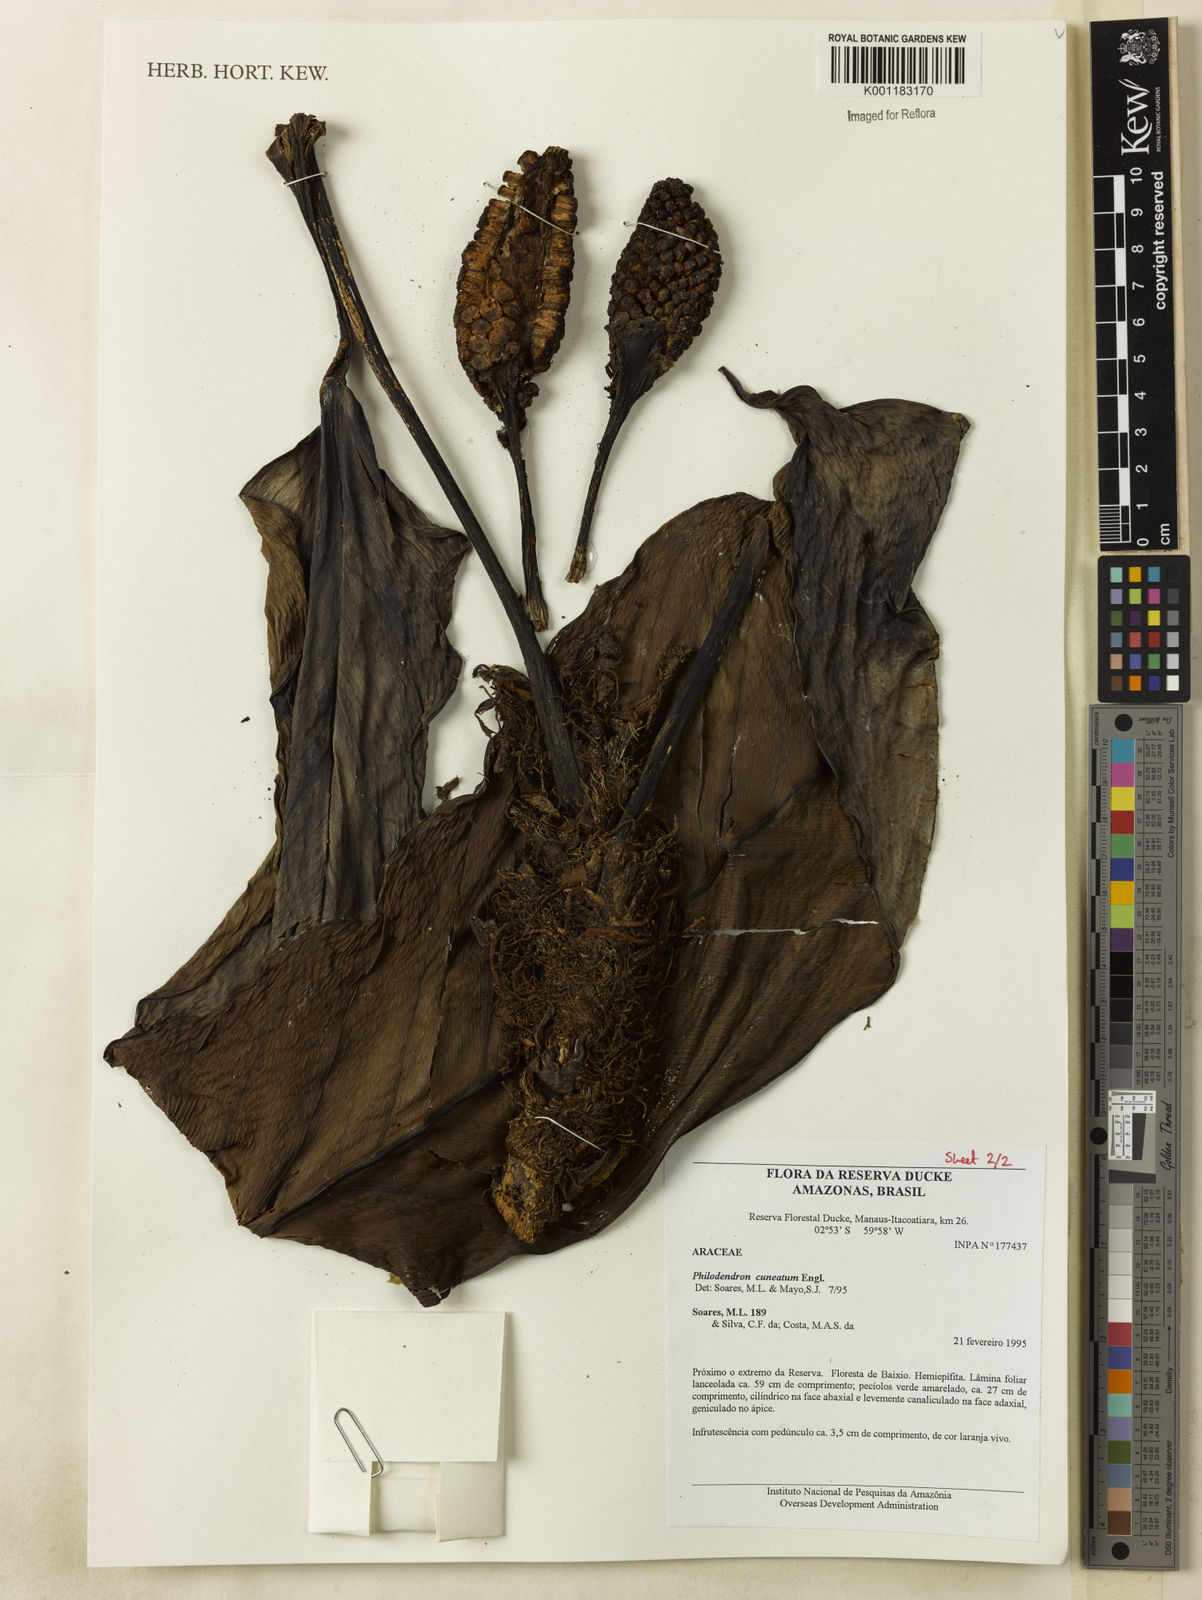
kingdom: Plantae
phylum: Tracheophyta
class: Liliopsida
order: Alismatales
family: Araceae
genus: Philodendron
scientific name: Philodendron cuneatum
